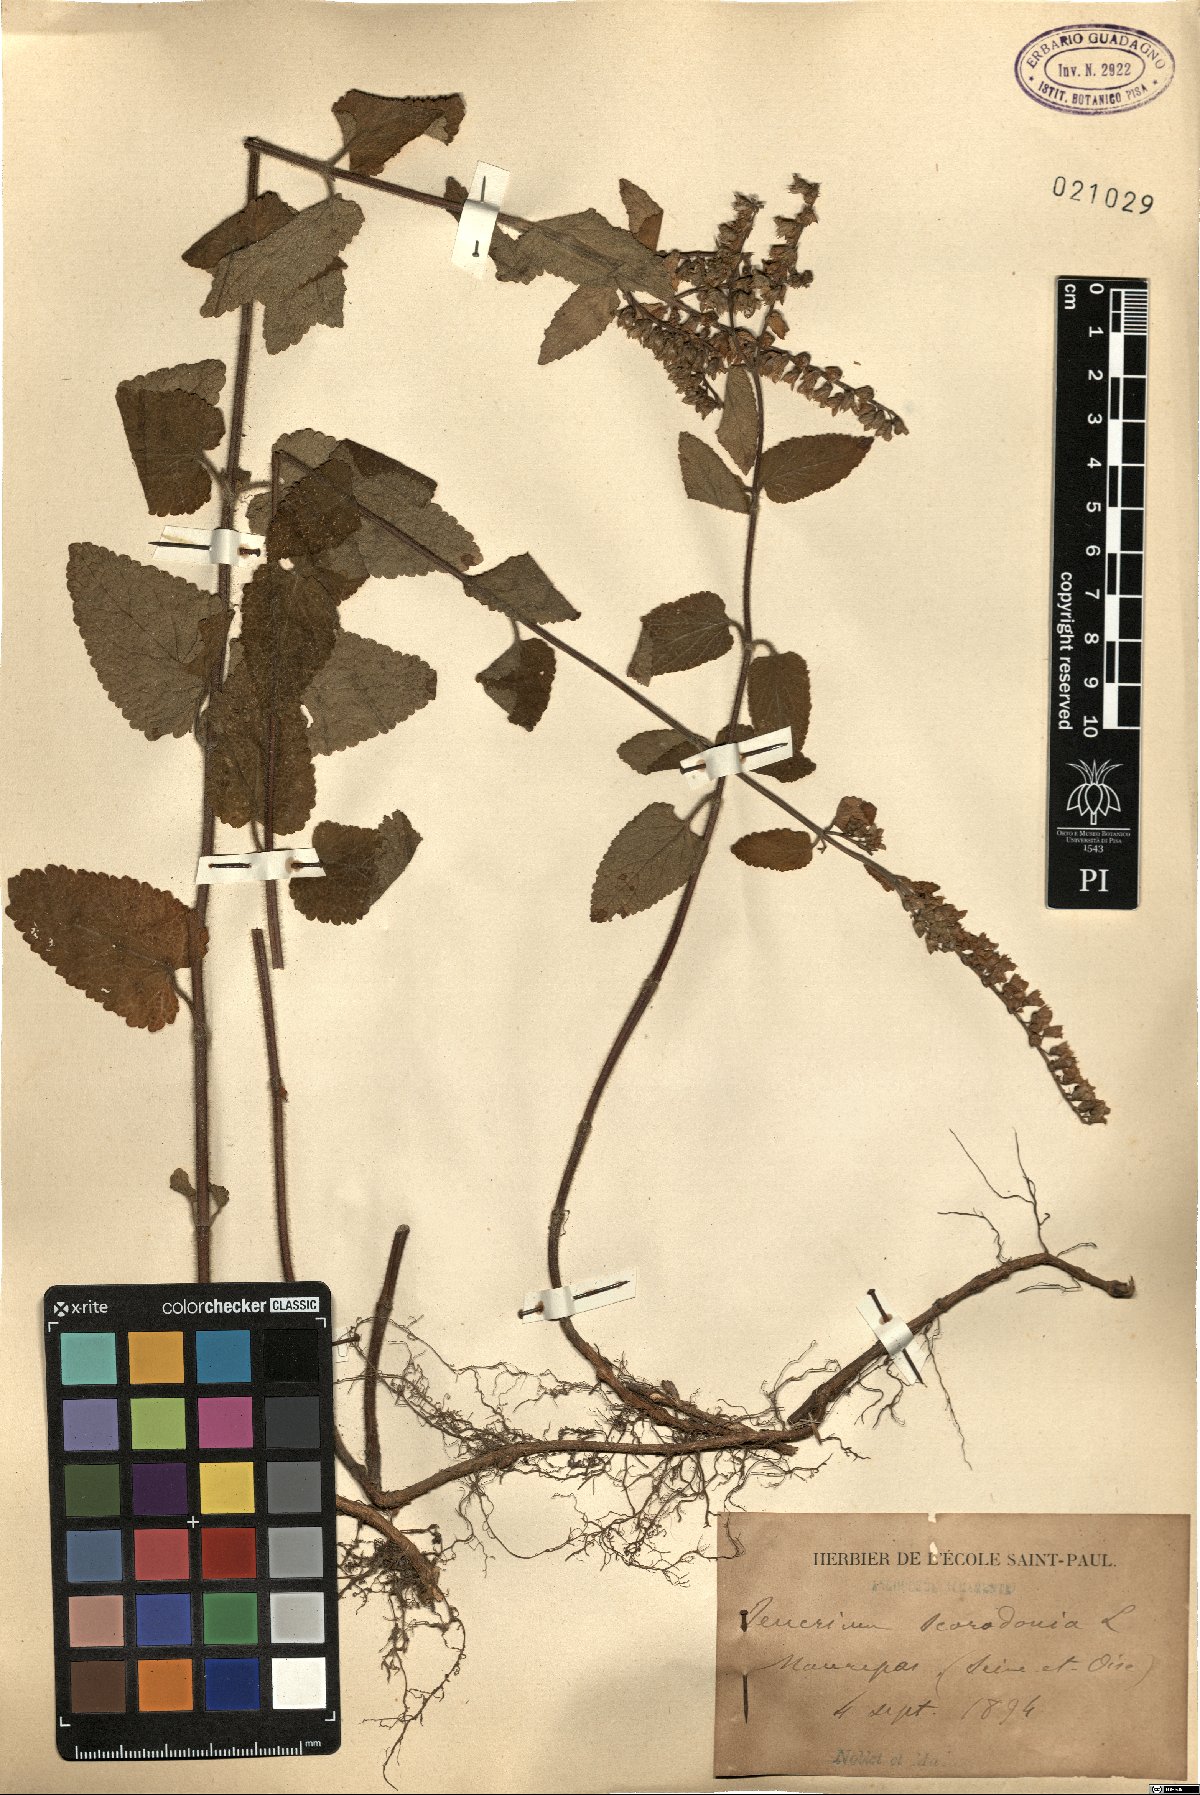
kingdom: Plantae
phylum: Tracheophyta
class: Magnoliopsida
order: Lamiales
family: Lamiaceae
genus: Teucrium
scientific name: Teucrium scorodonia
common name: Woodland germander
